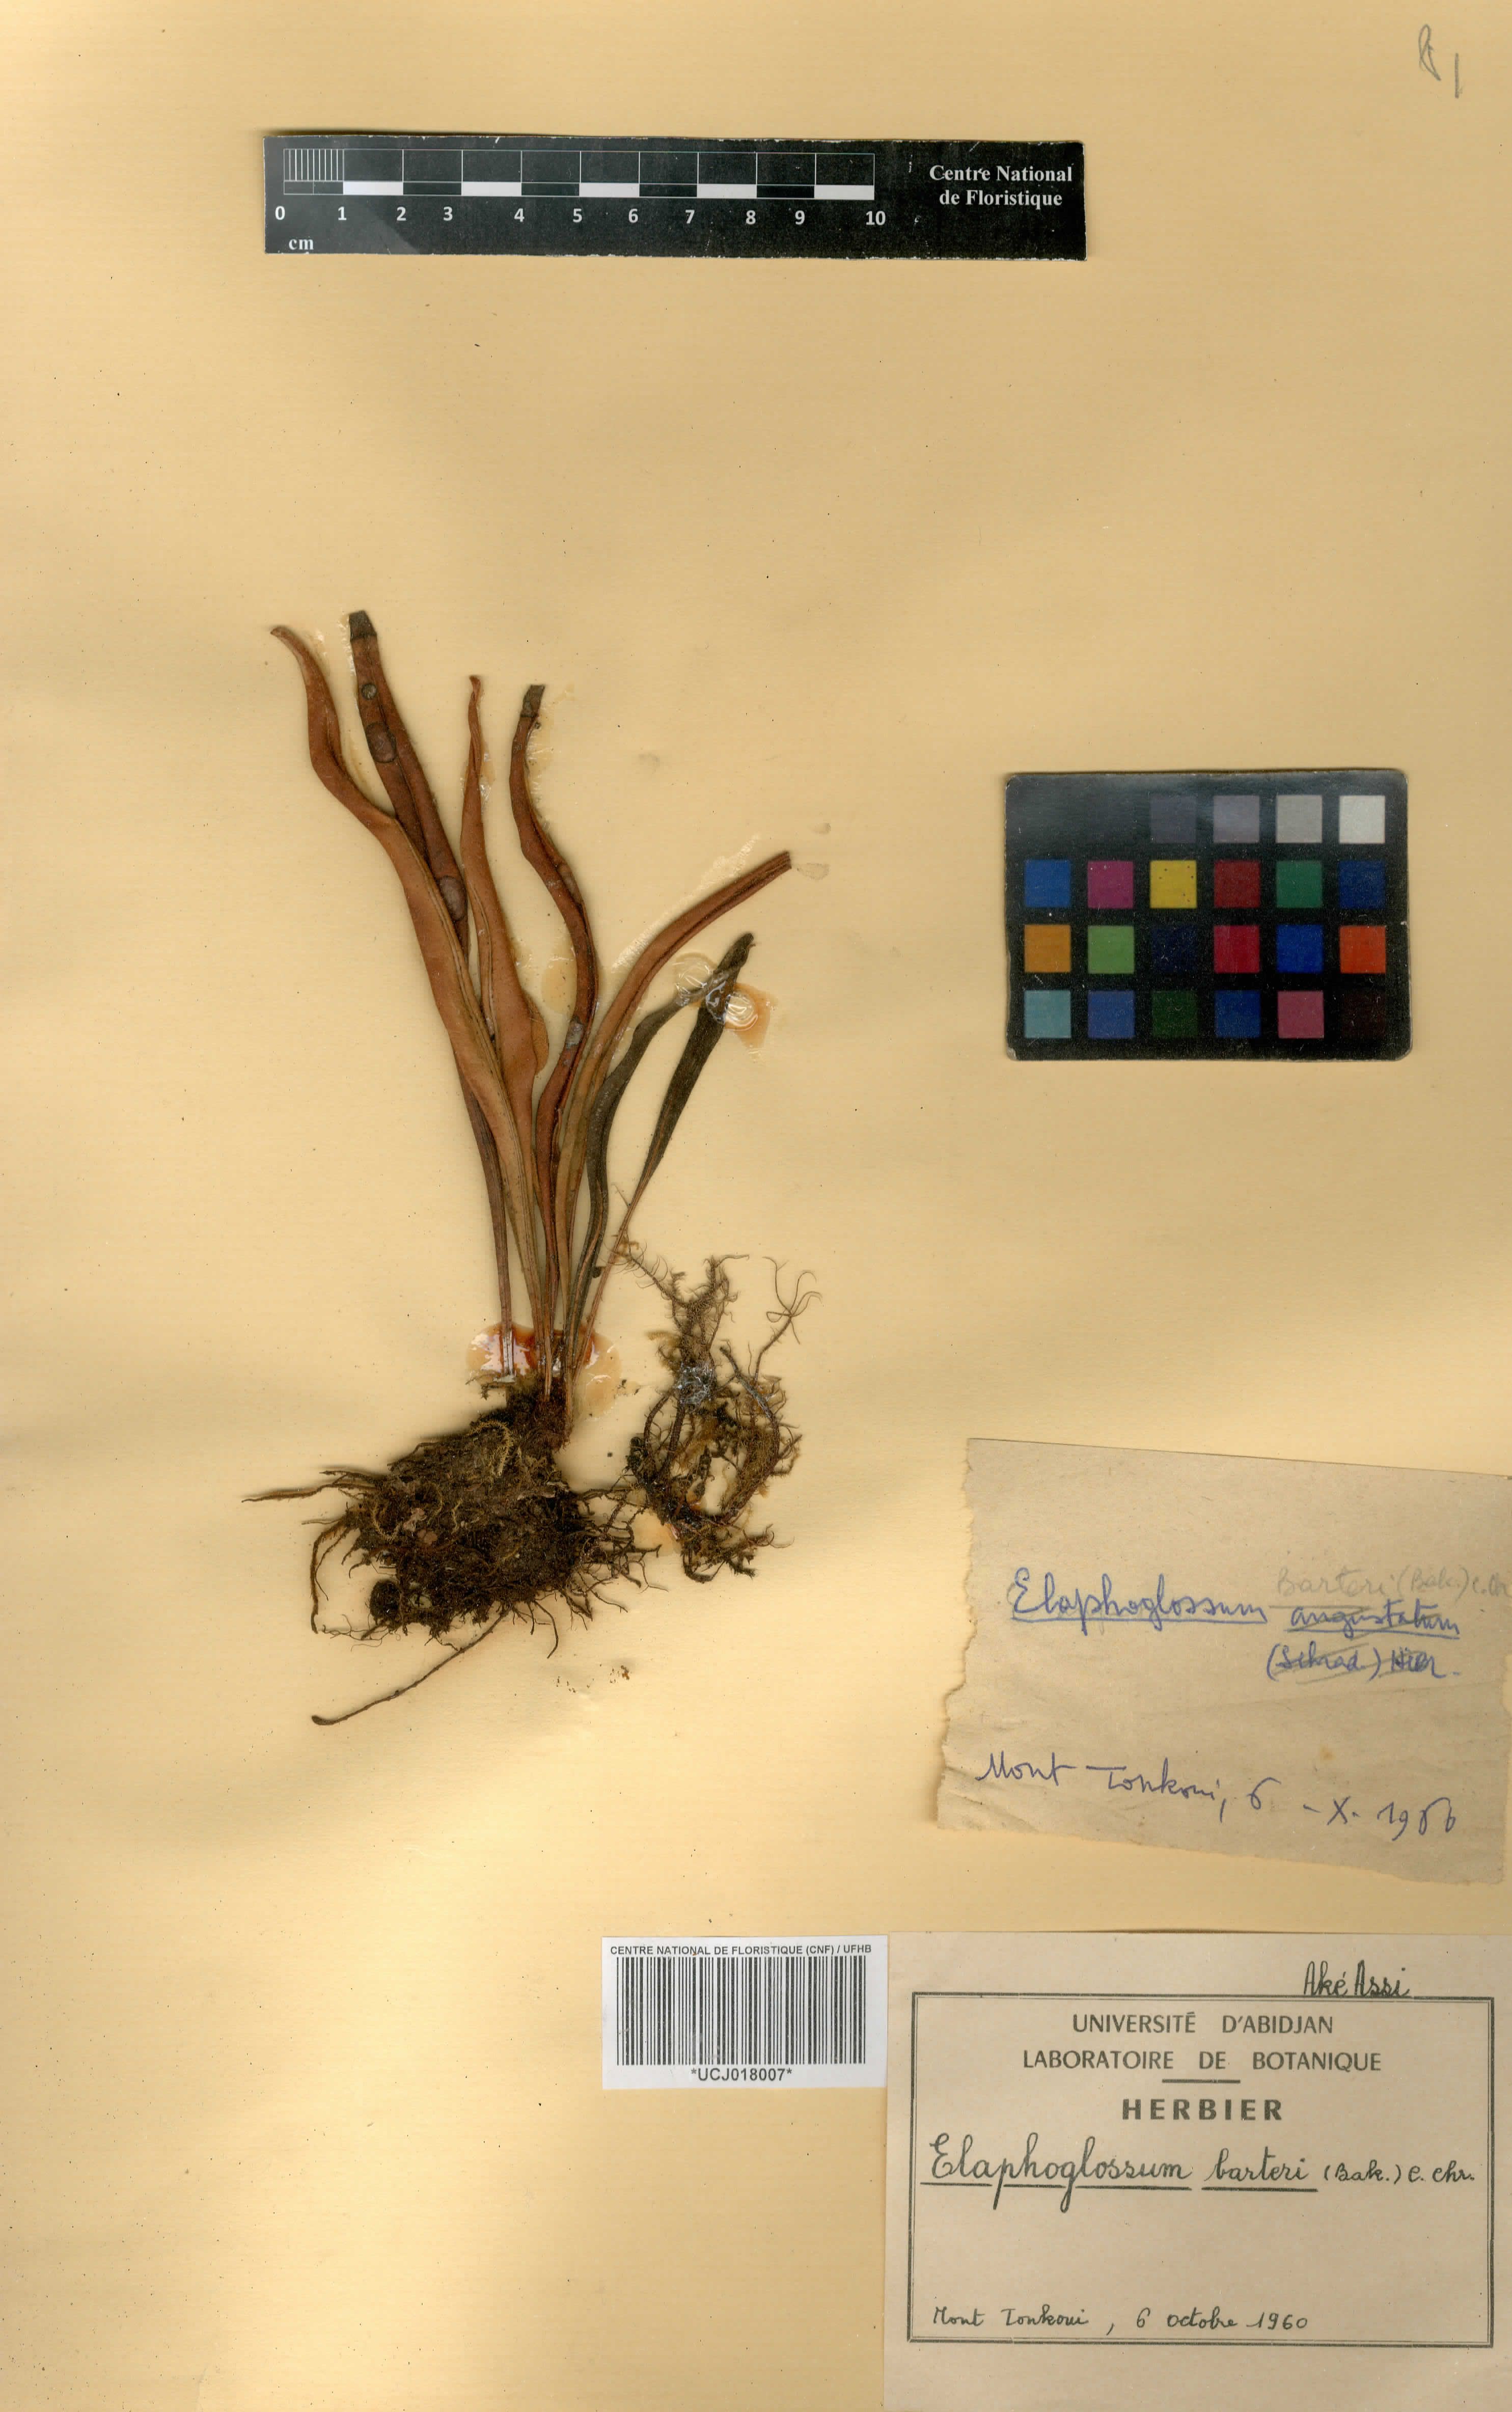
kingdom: Plantae
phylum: Tracheophyta
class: Polypodiopsida
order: Polypodiales
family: Dryopteridaceae
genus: Elaphoglossum
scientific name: Elaphoglossum barteri
